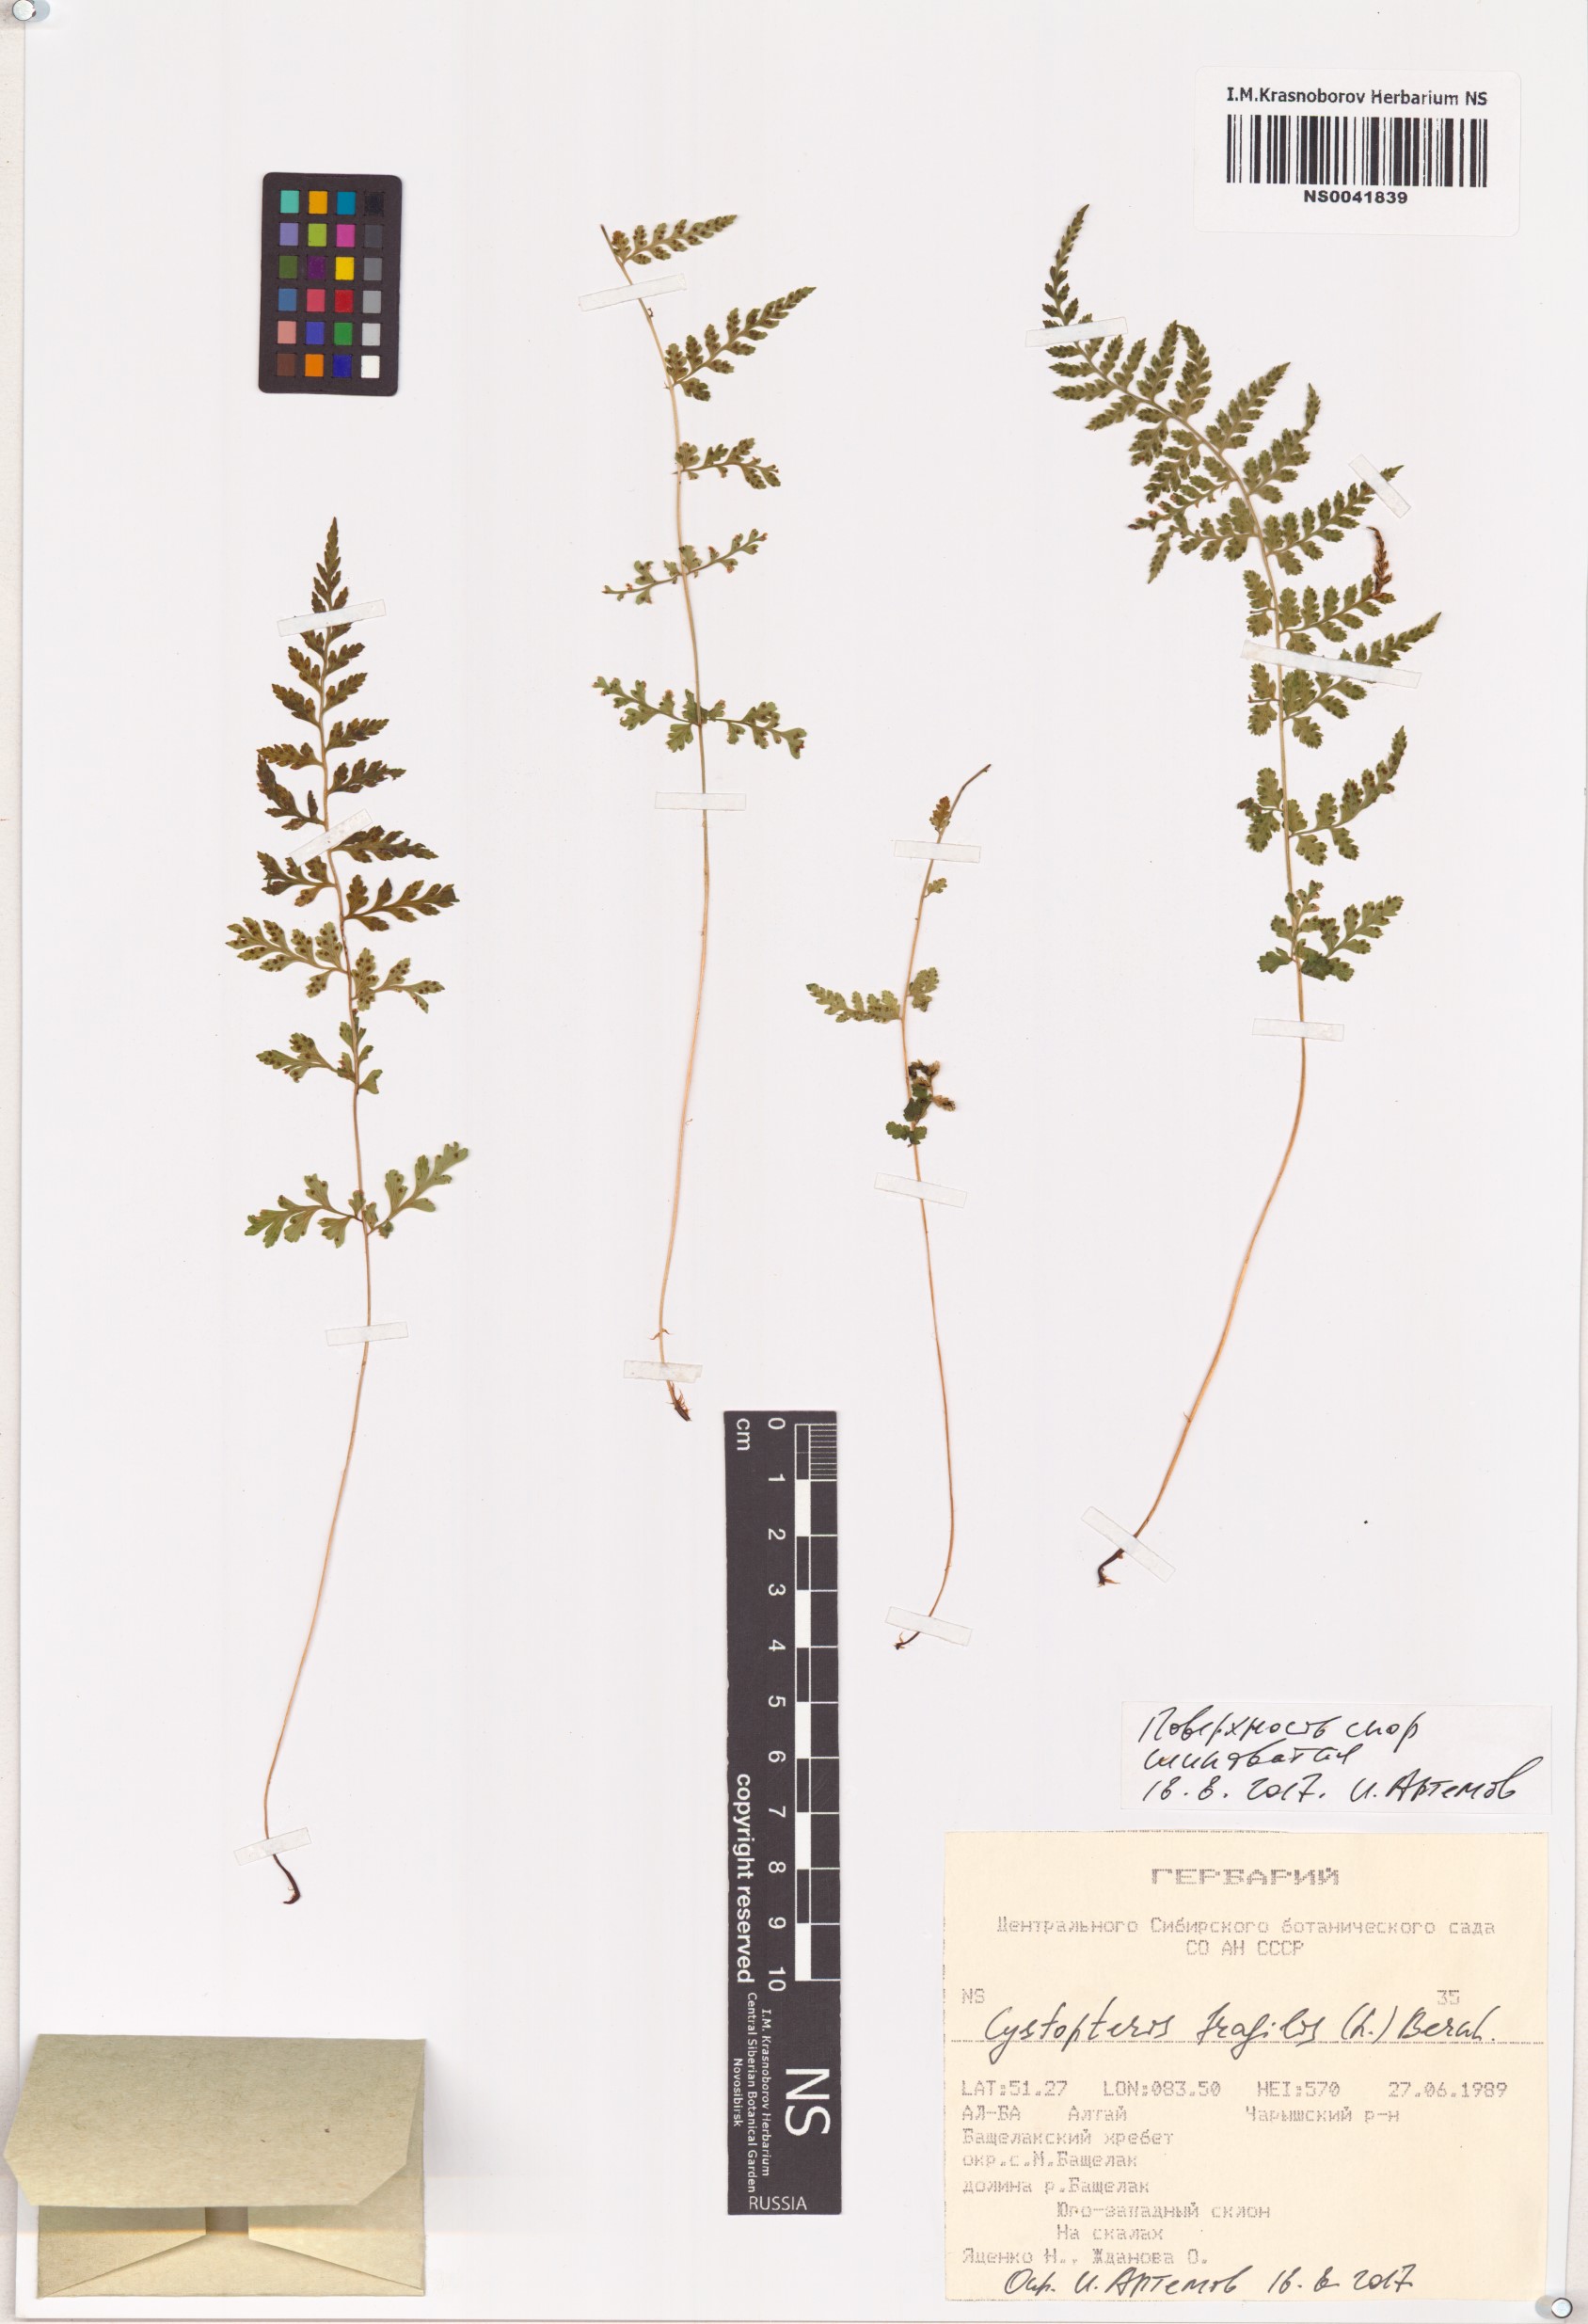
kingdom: Plantae
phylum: Tracheophyta
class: Polypodiopsida
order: Polypodiales
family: Cystopteridaceae
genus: Cystopteris
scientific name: Cystopteris fragilis
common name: Brittle bladder fern
